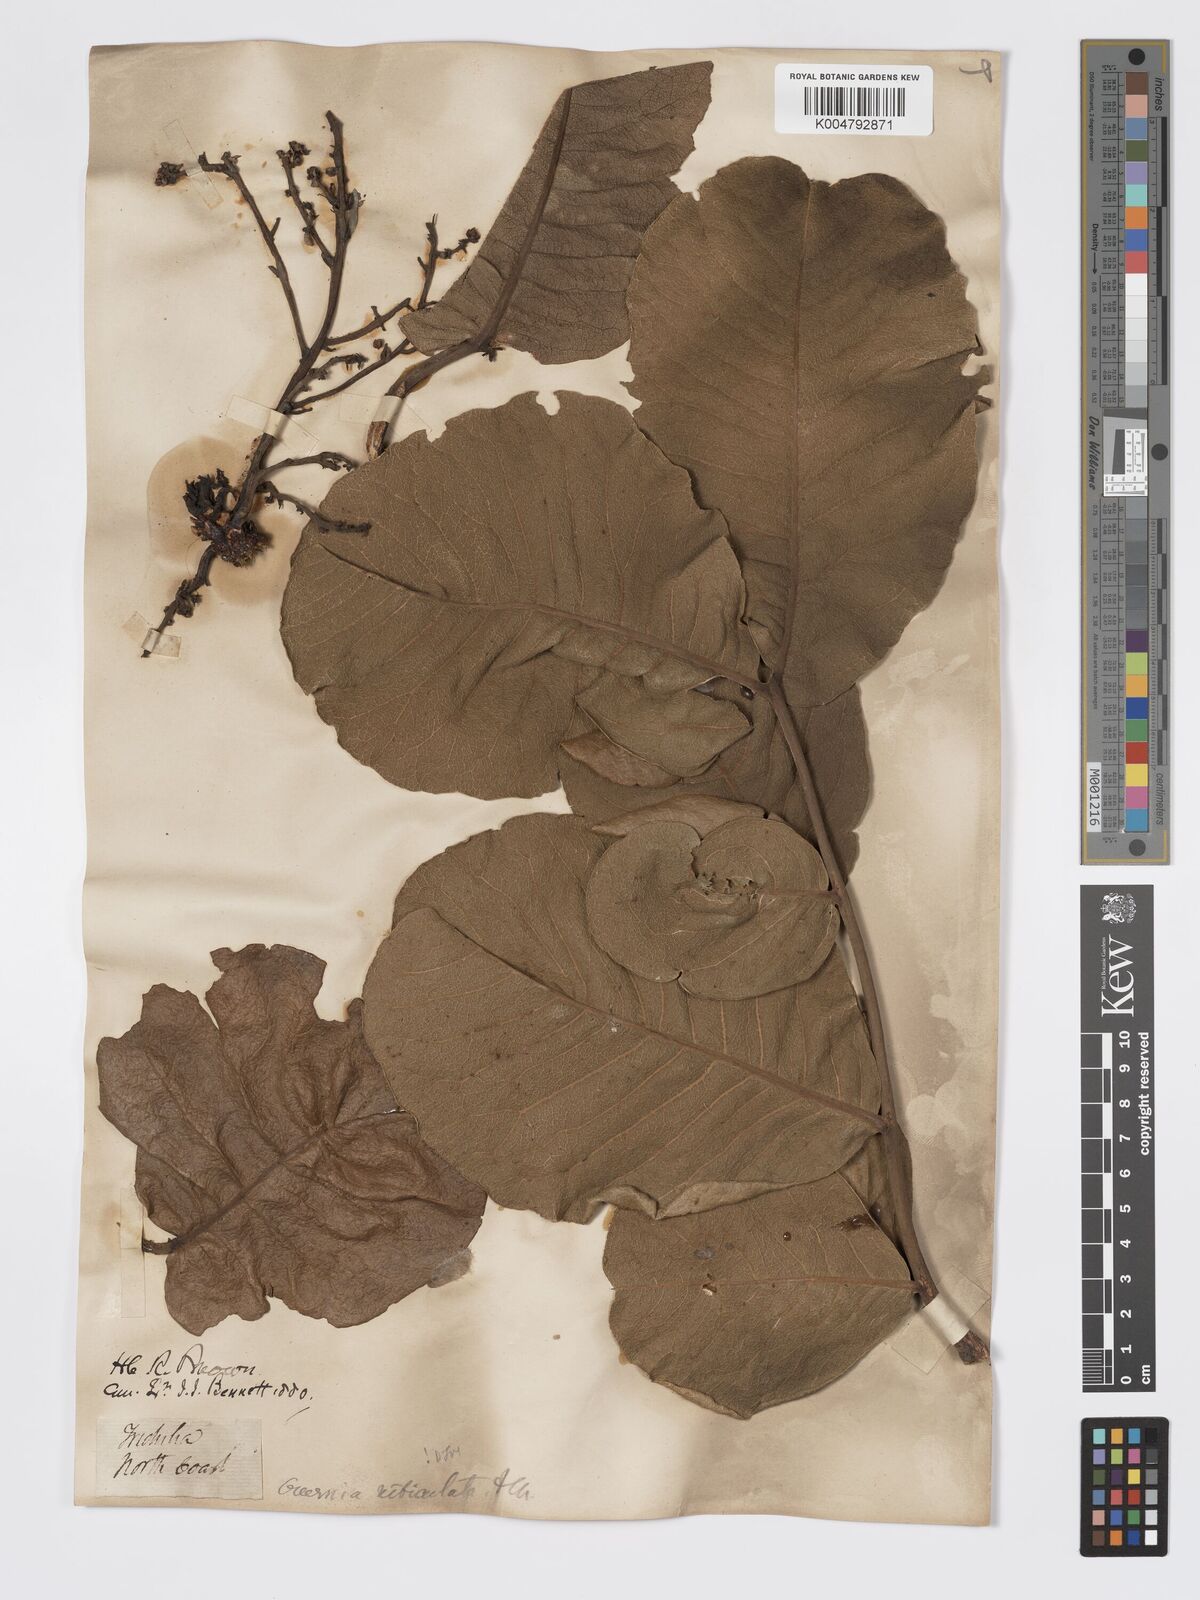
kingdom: Plantae
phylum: Tracheophyta
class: Magnoliopsida
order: Sapindales
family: Meliaceae
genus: Owenia
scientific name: Owenia reticulata
